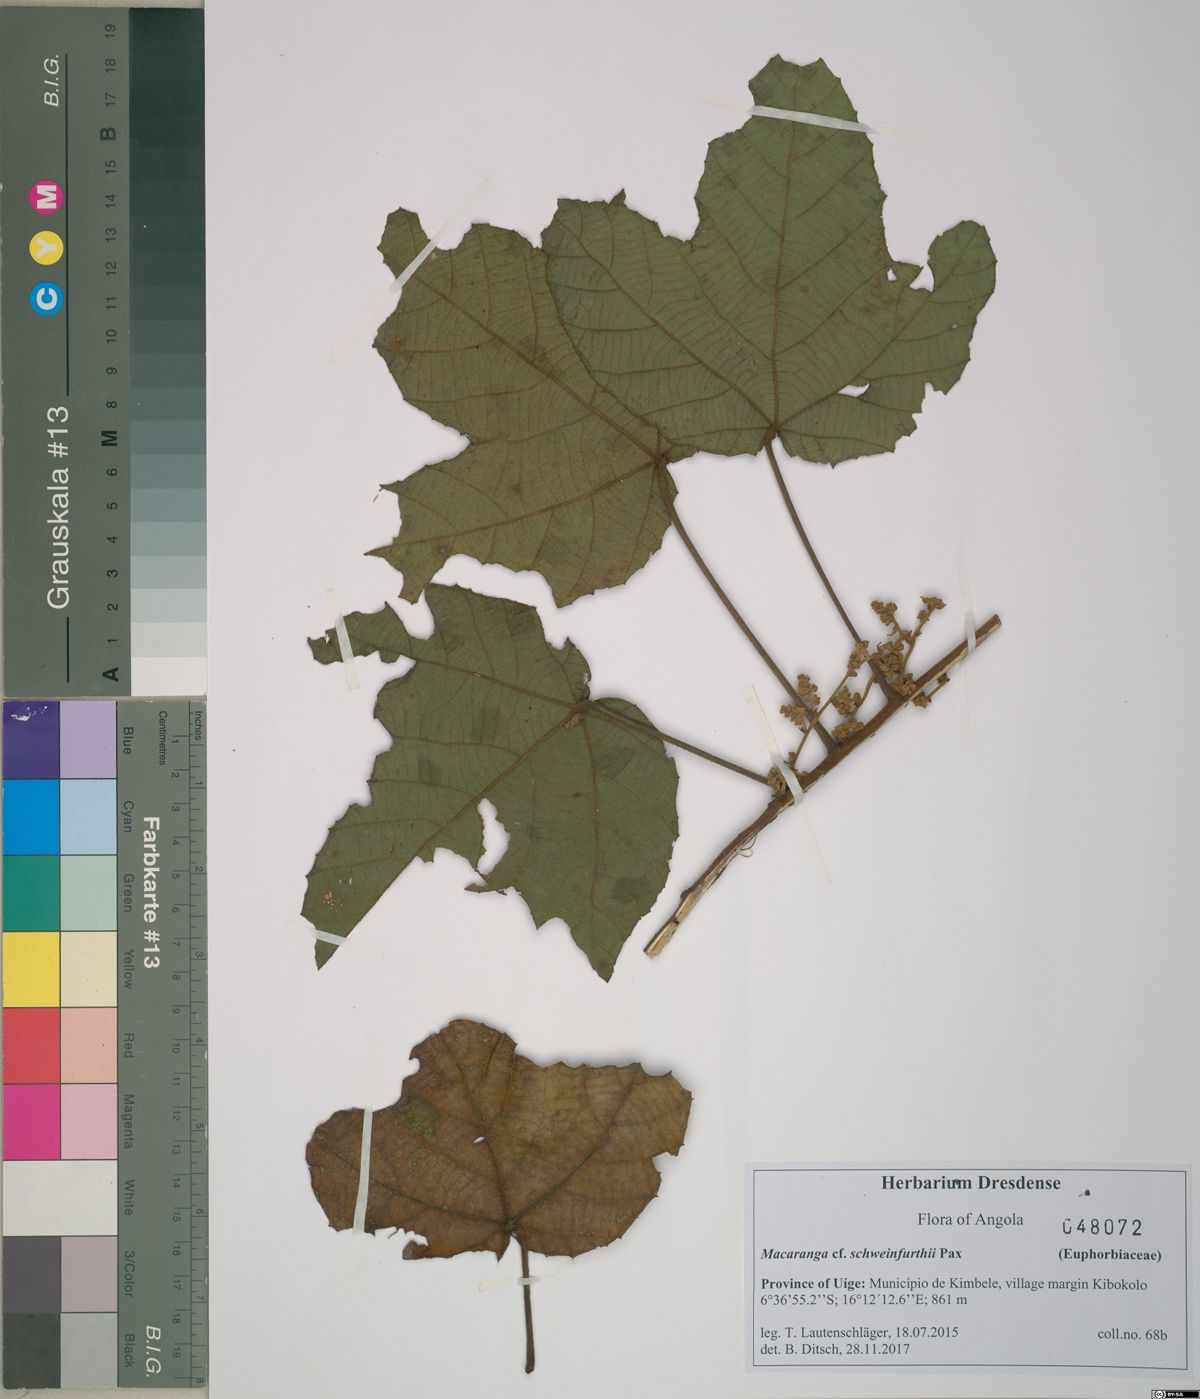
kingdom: Plantae
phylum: Tracheophyta
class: Magnoliopsida
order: Malpighiales
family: Euphorbiaceae
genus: Macaranga
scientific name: Macaranga angolensis
